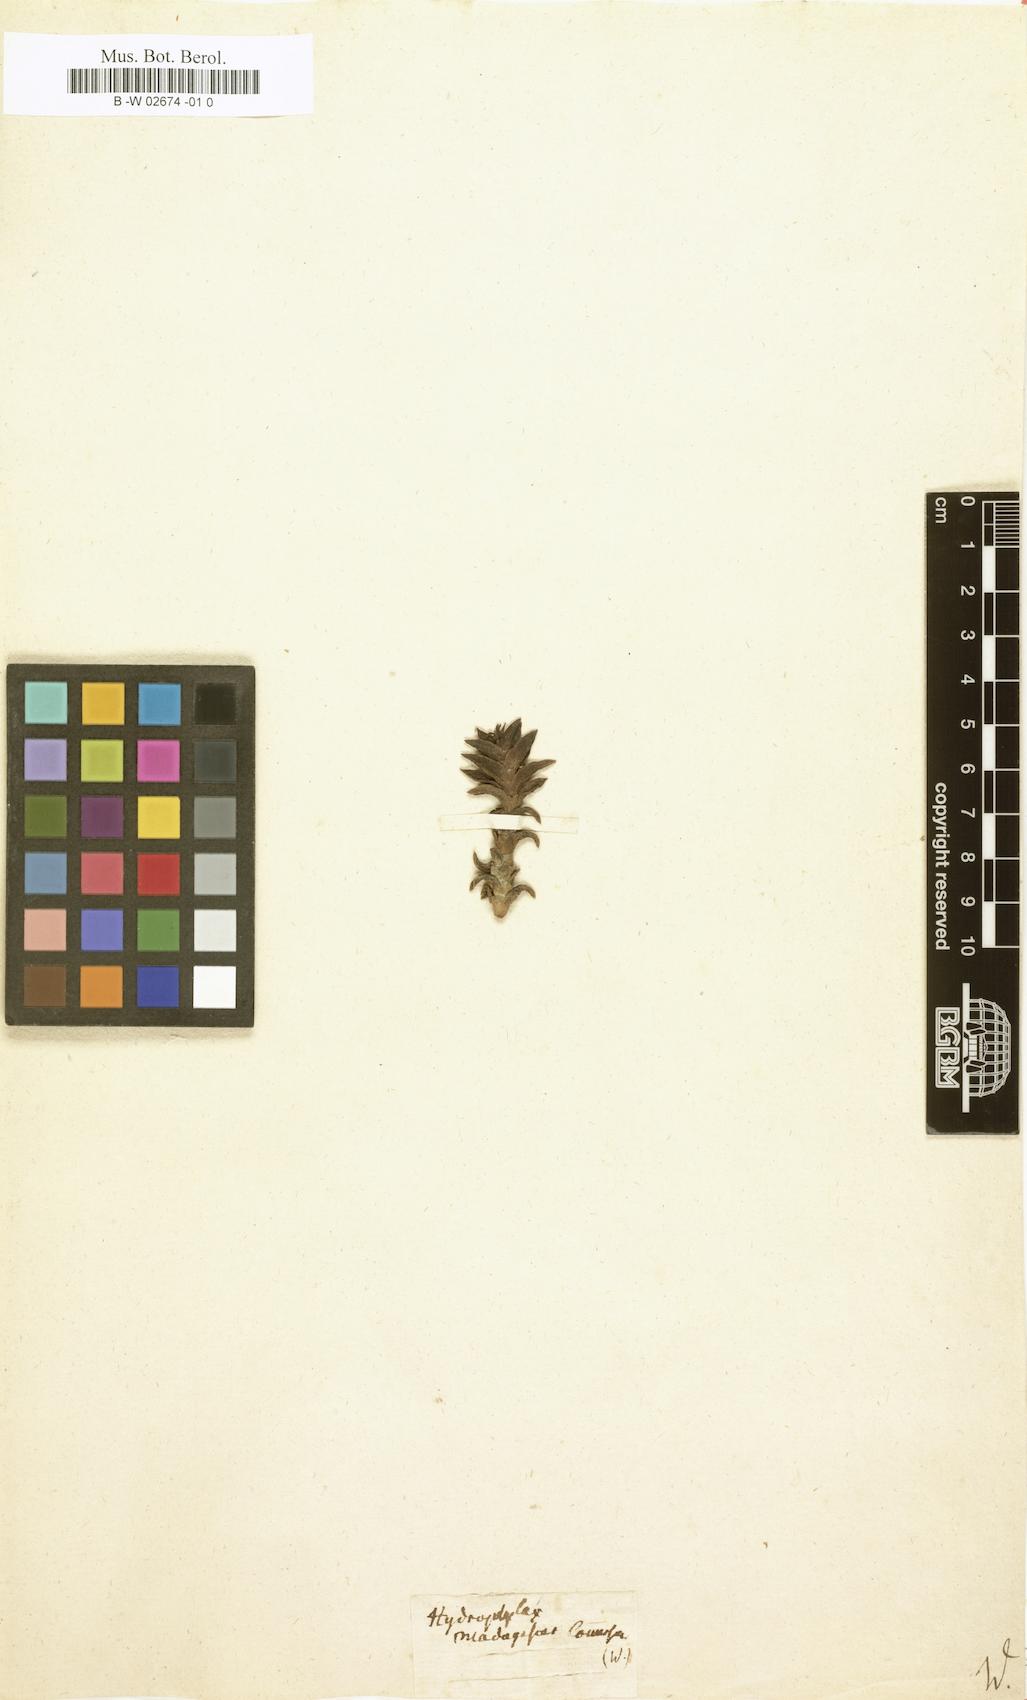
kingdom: Plantae
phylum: Tracheophyta
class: Magnoliopsida
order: Gentianales
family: Rubiaceae
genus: Hydrophylax
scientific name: Hydrophylax
